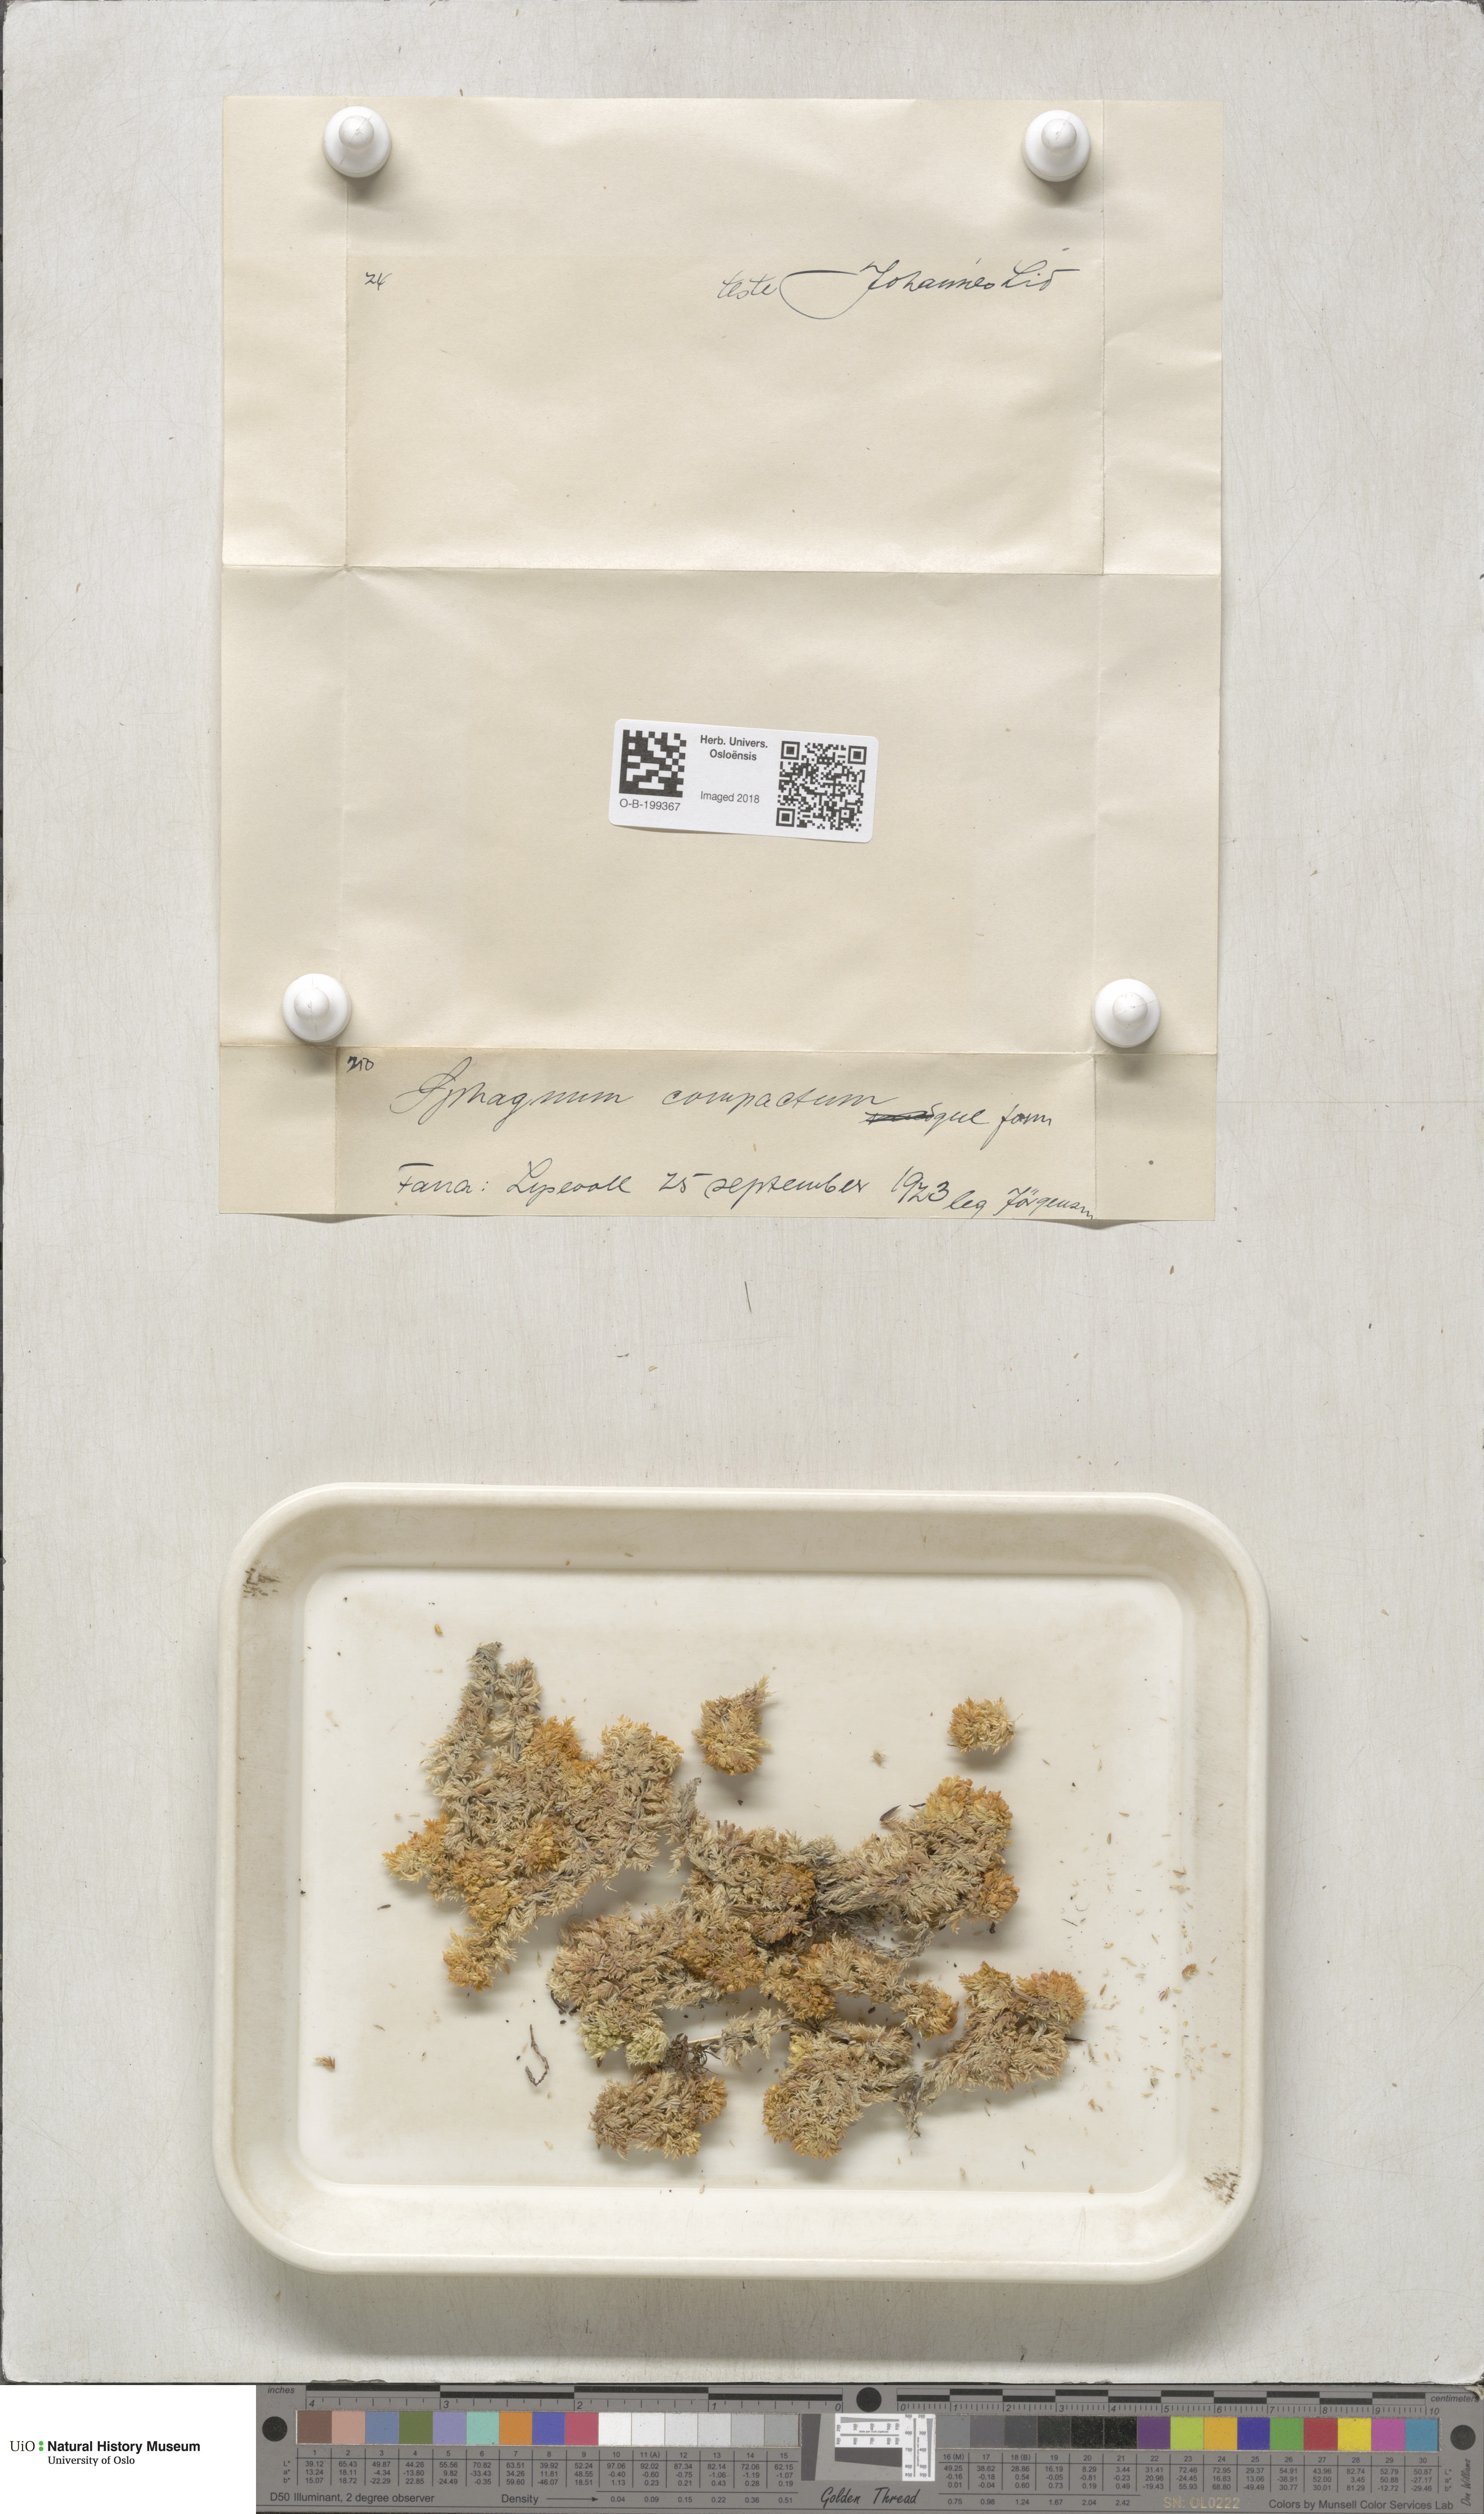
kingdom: Plantae
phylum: Bryophyta
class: Sphagnopsida
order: Sphagnales
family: Sphagnaceae
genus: Sphagnum
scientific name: Sphagnum compactum
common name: Compact peat moss
